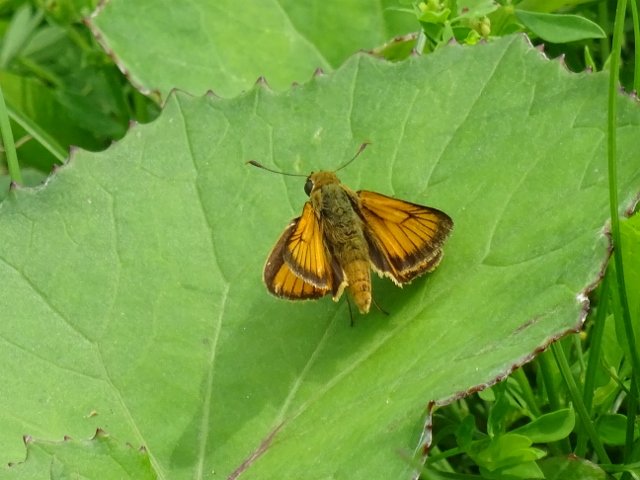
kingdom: Animalia
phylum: Arthropoda
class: Insecta
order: Lepidoptera
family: Hesperiidae
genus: Atrytone
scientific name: Atrytone delaware
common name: Delaware Skipper
